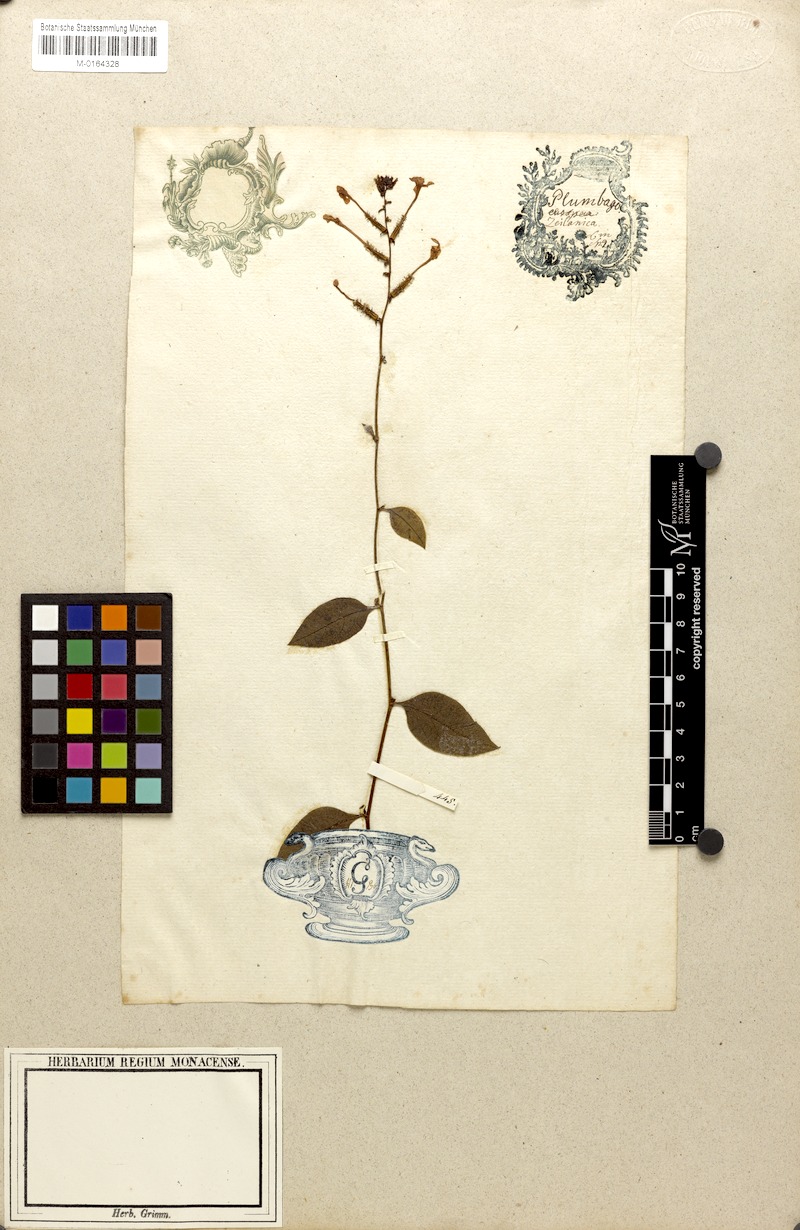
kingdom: Plantae
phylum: Tracheophyta
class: Magnoliopsida
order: Caryophyllales
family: Plumbaginaceae
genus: Plumbago
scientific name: Plumbago zeylanica
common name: Doctorbush
